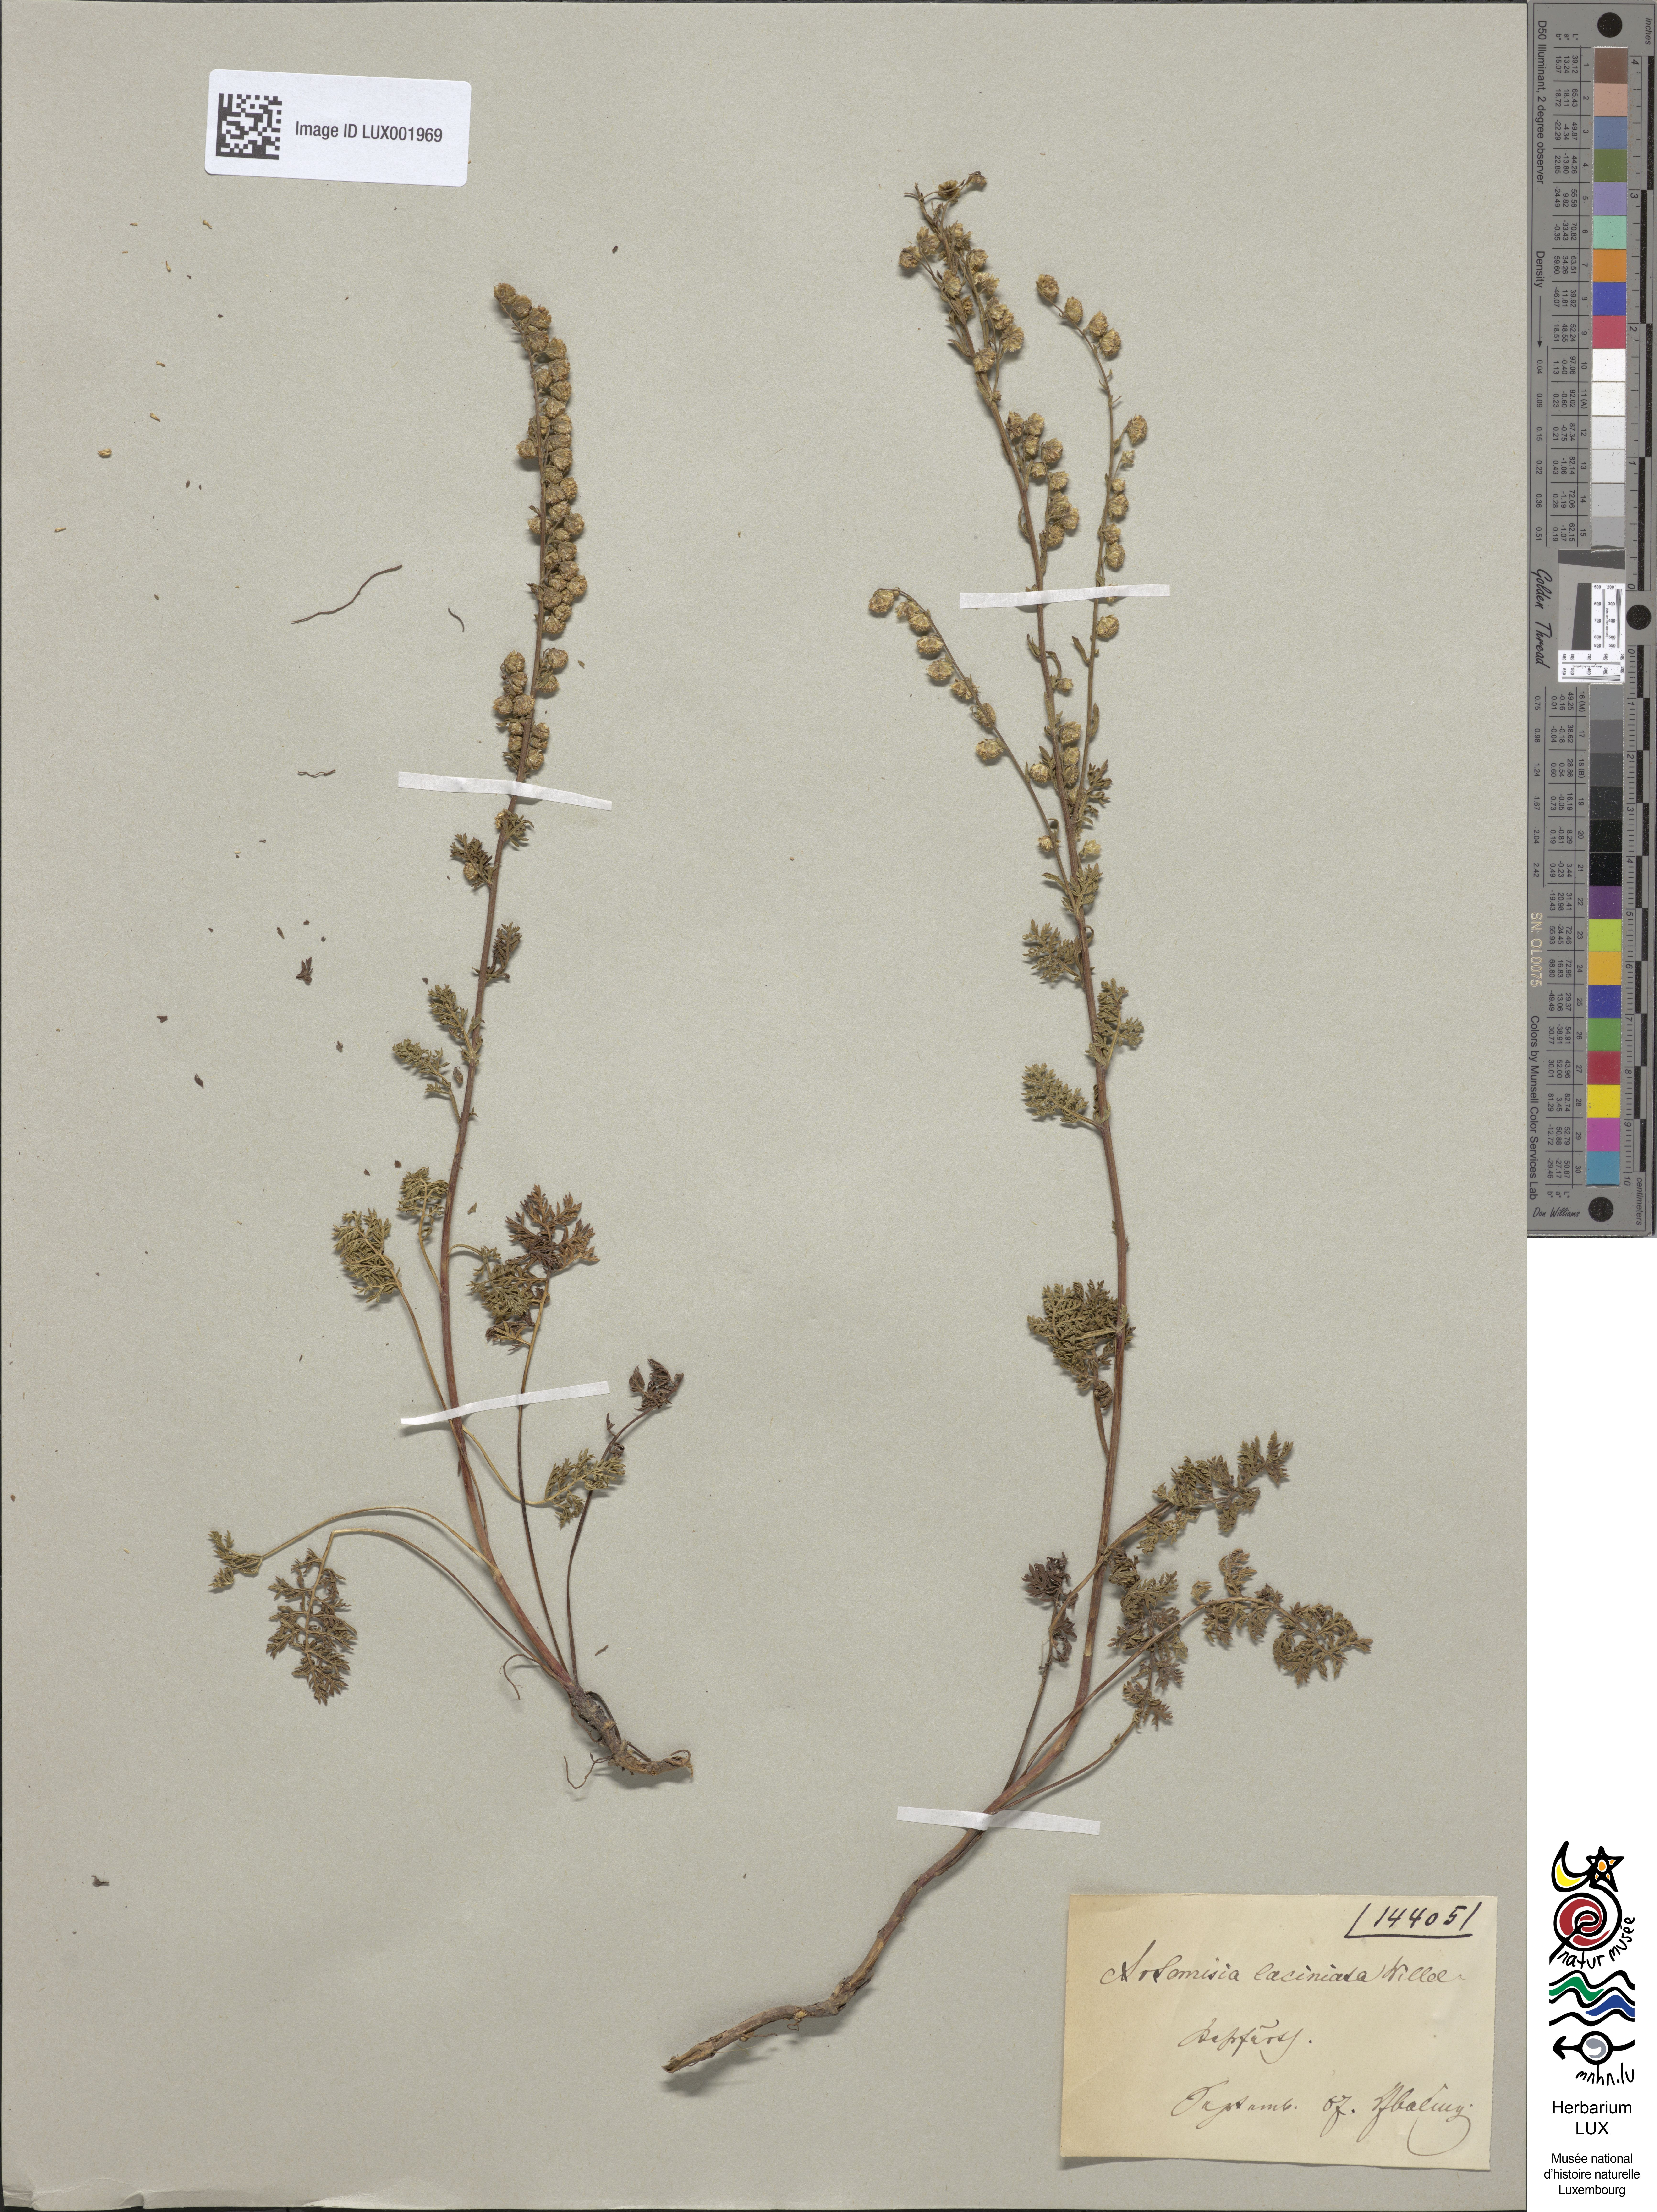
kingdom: Plantae
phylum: Tracheophyta
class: Magnoliopsida
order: Asterales
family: Asteraceae
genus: Artemisia
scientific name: Artemisia laciniata
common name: Siberian wormwood
